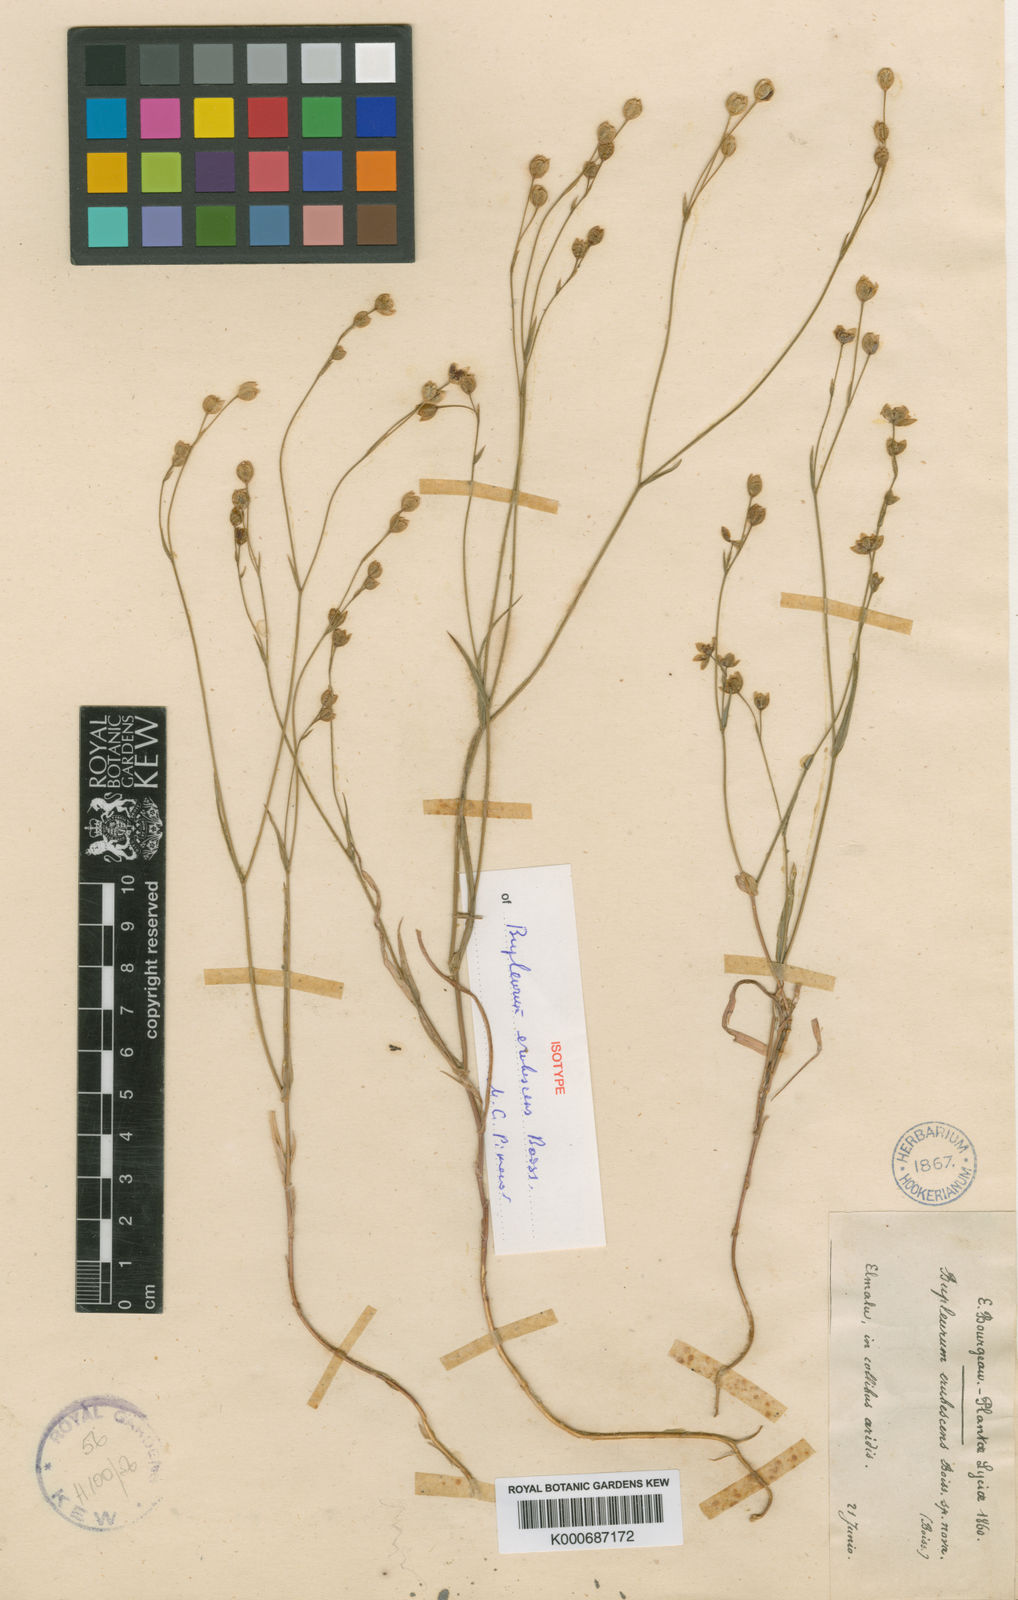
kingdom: Plantae
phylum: Tracheophyta
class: Magnoliopsida
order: Apiales
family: Apiaceae
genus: Bupleurum
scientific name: Bupleurum erubescens
